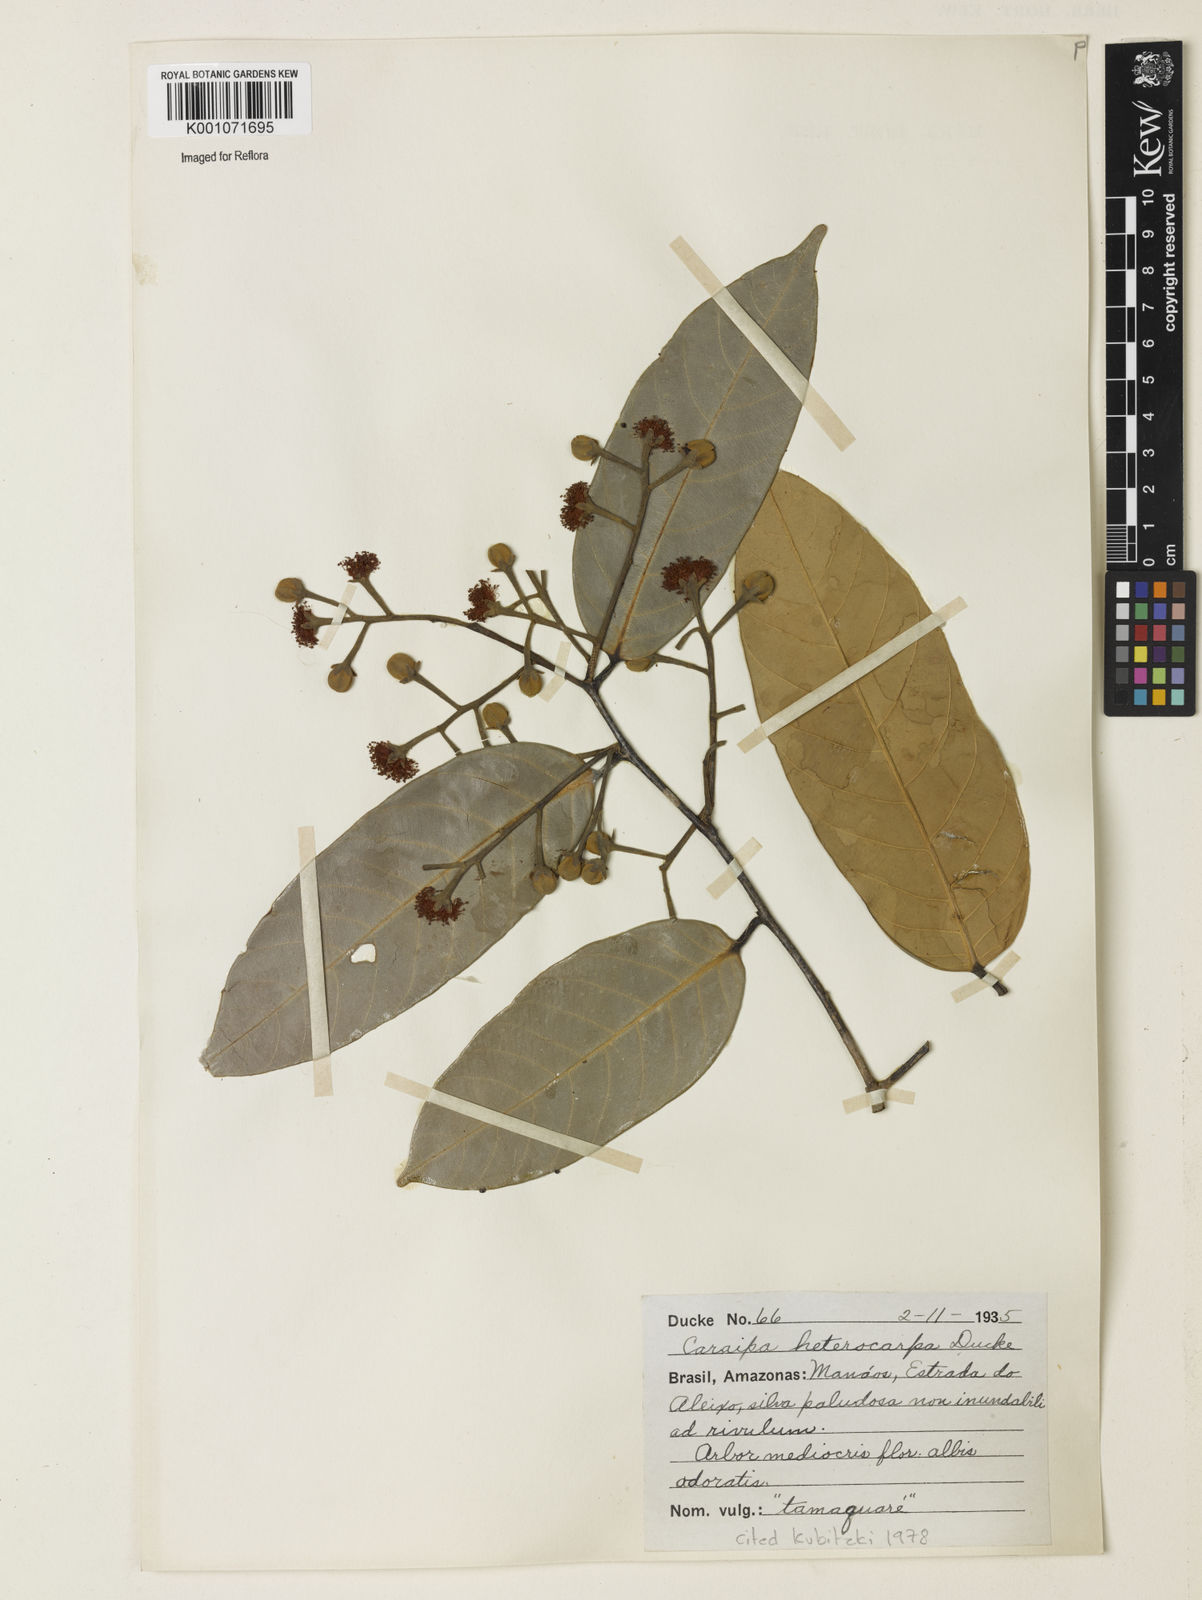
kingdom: Plantae
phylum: Tracheophyta
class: Magnoliopsida
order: Malpighiales
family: Calophyllaceae
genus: Caraipa
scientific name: Caraipa heterocarpa
